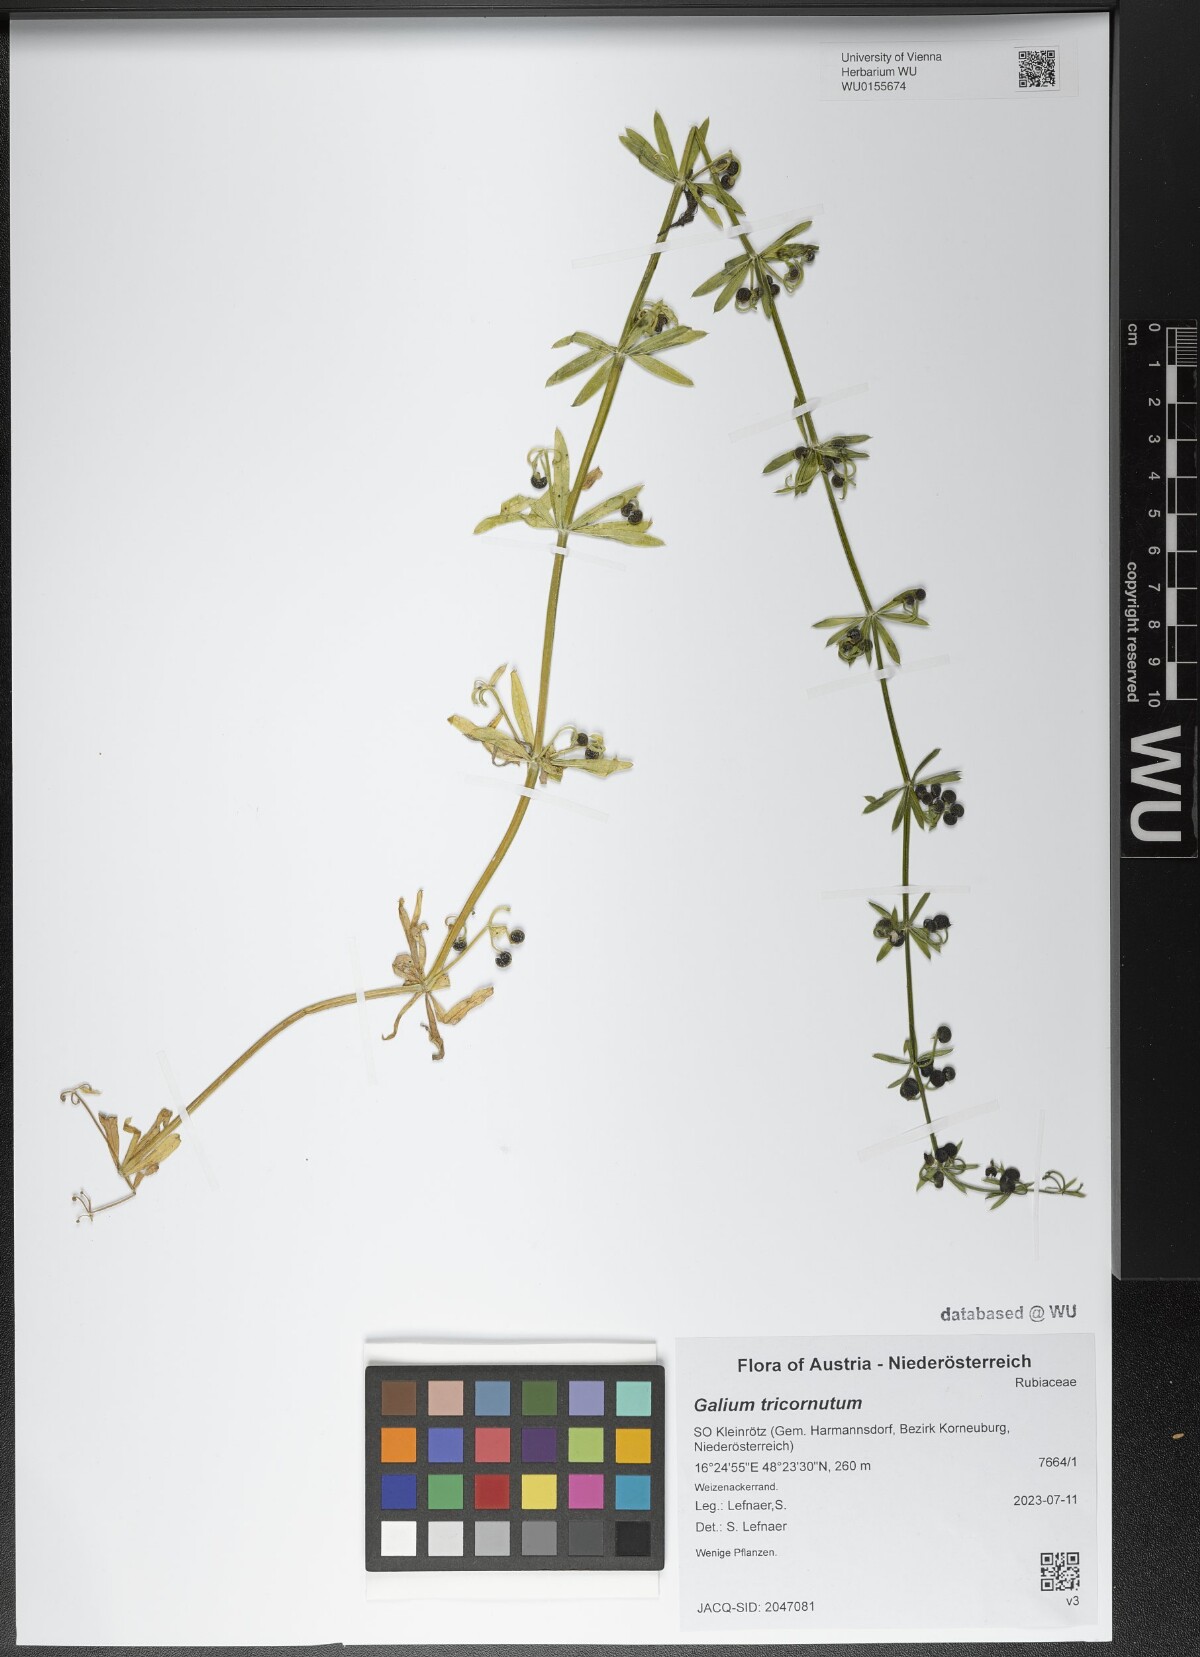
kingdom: Plantae
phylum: Tracheophyta
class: Magnoliopsida
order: Gentianales
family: Rubiaceae
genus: Galium
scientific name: Galium tricornutum
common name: Corn cleavers
